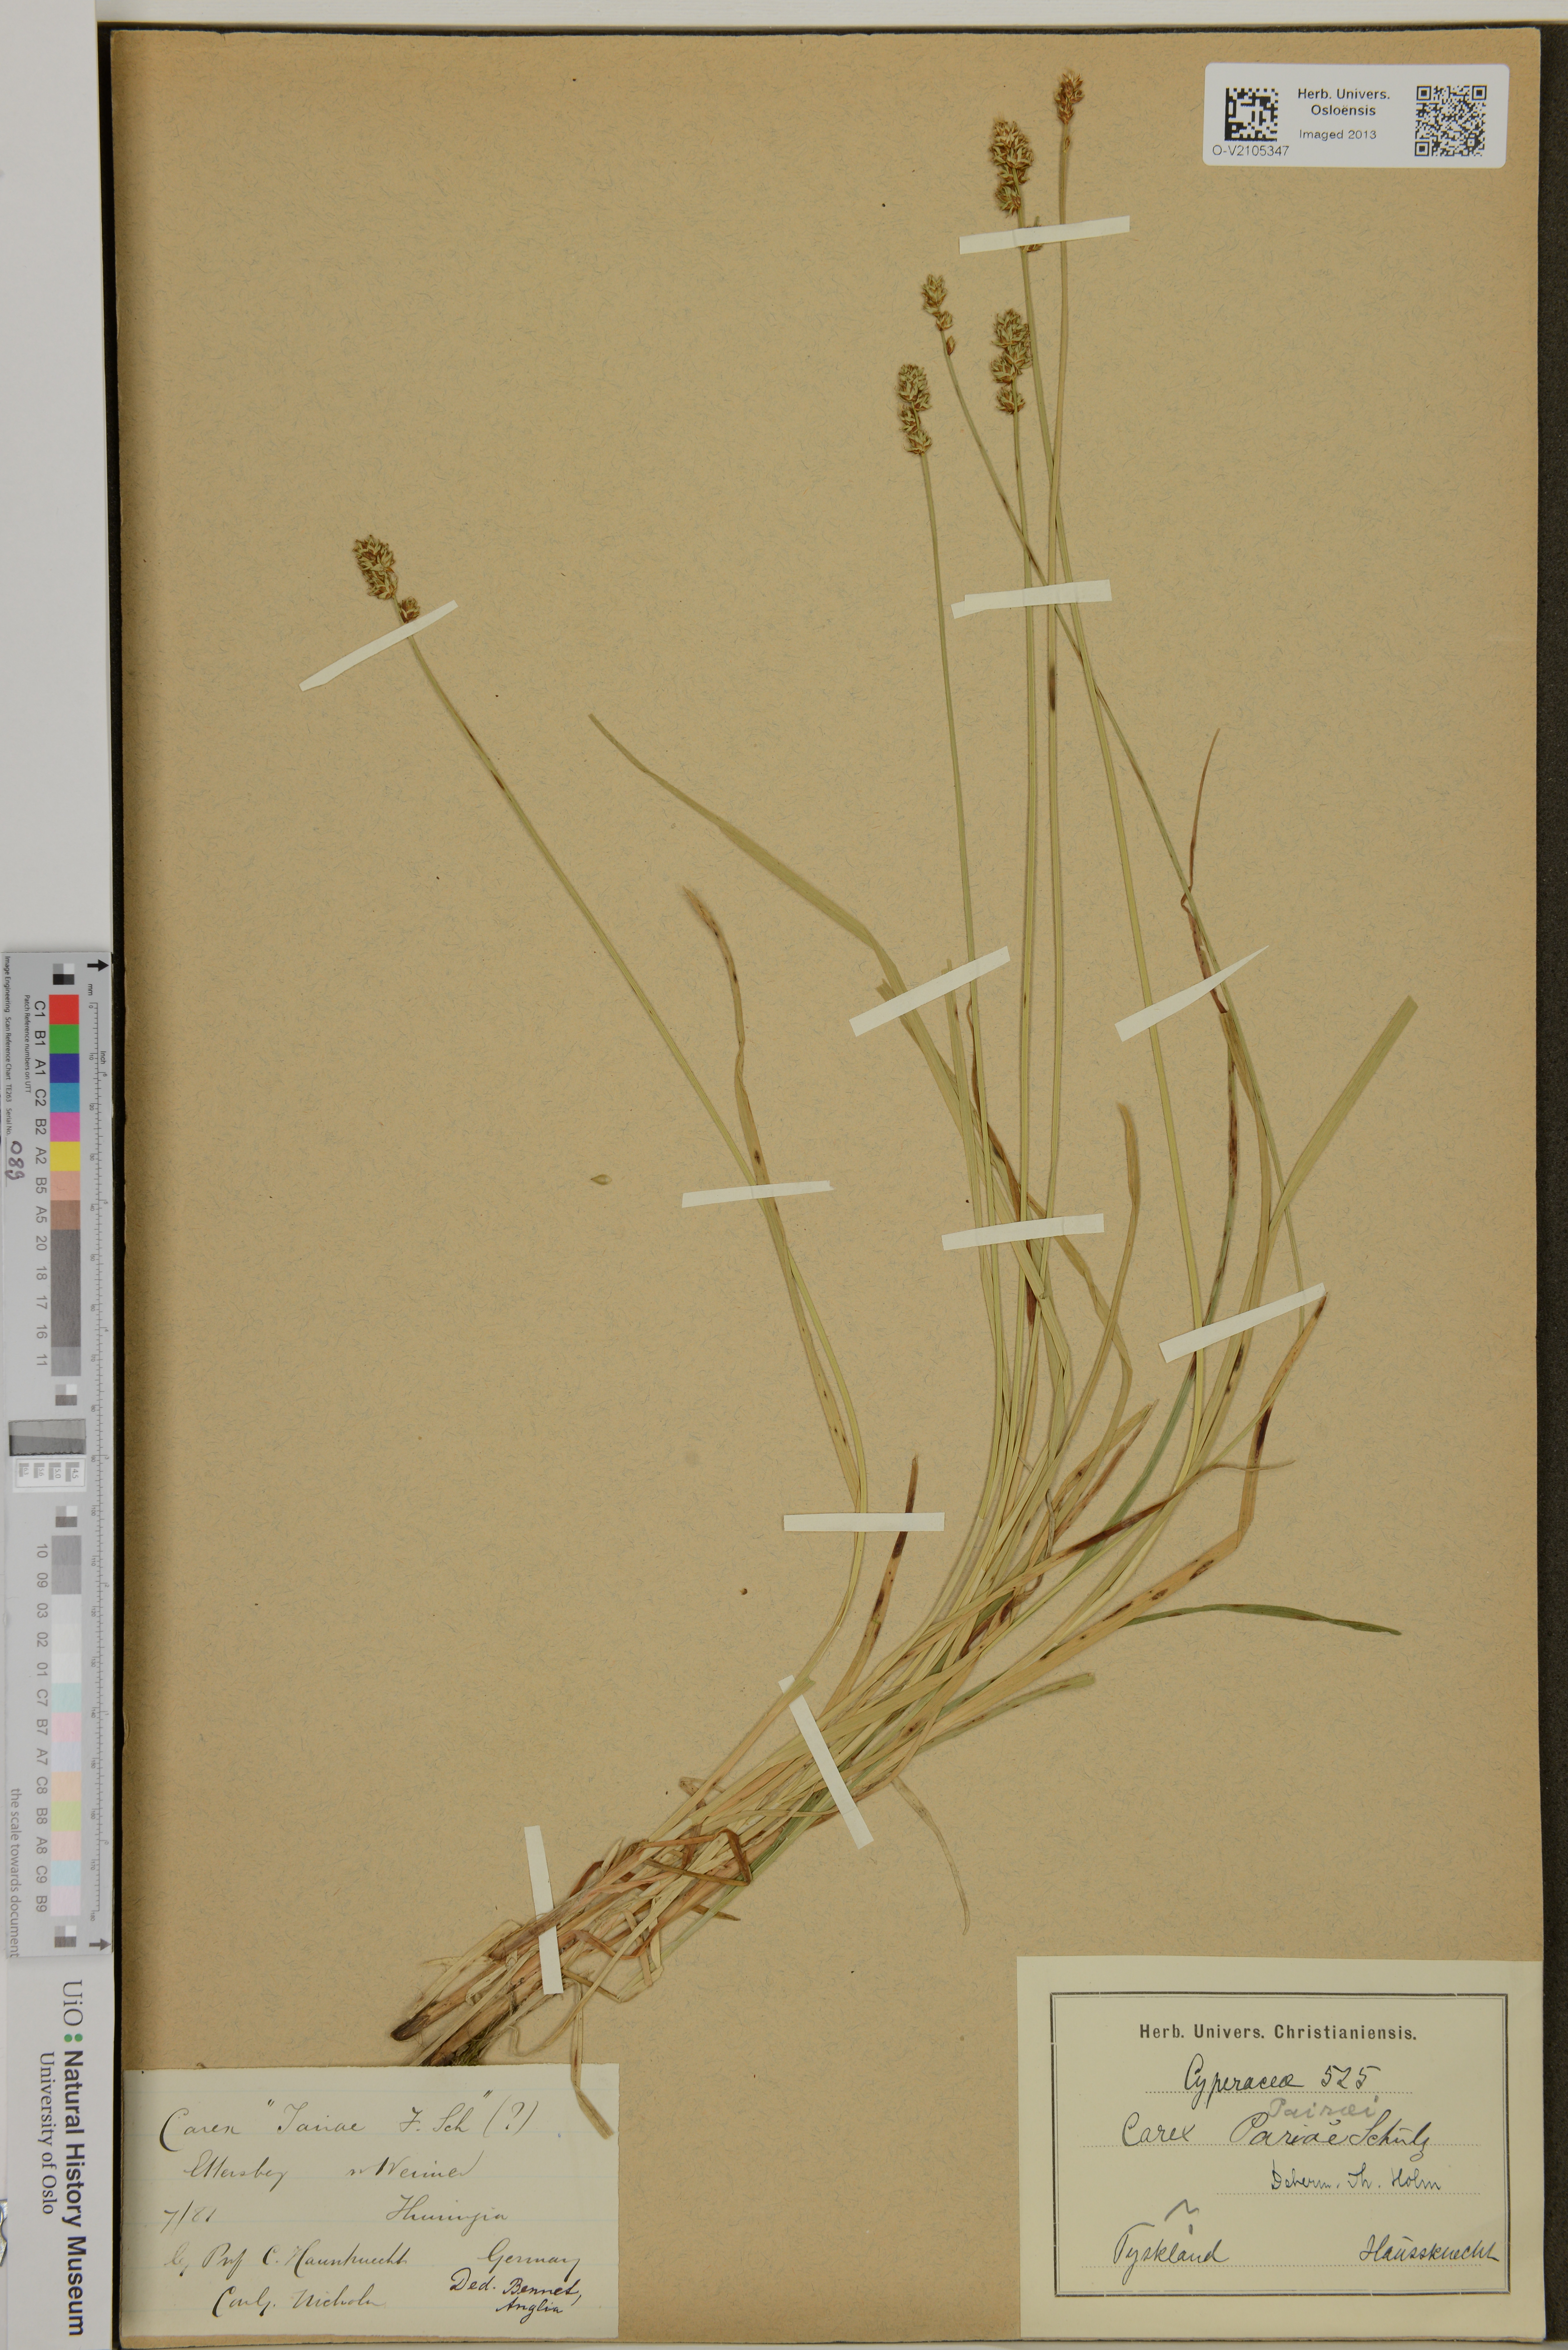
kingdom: Plantae
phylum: Tracheophyta
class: Liliopsida
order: Poales
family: Cyperaceae
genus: Carex
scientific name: Carex pairae
